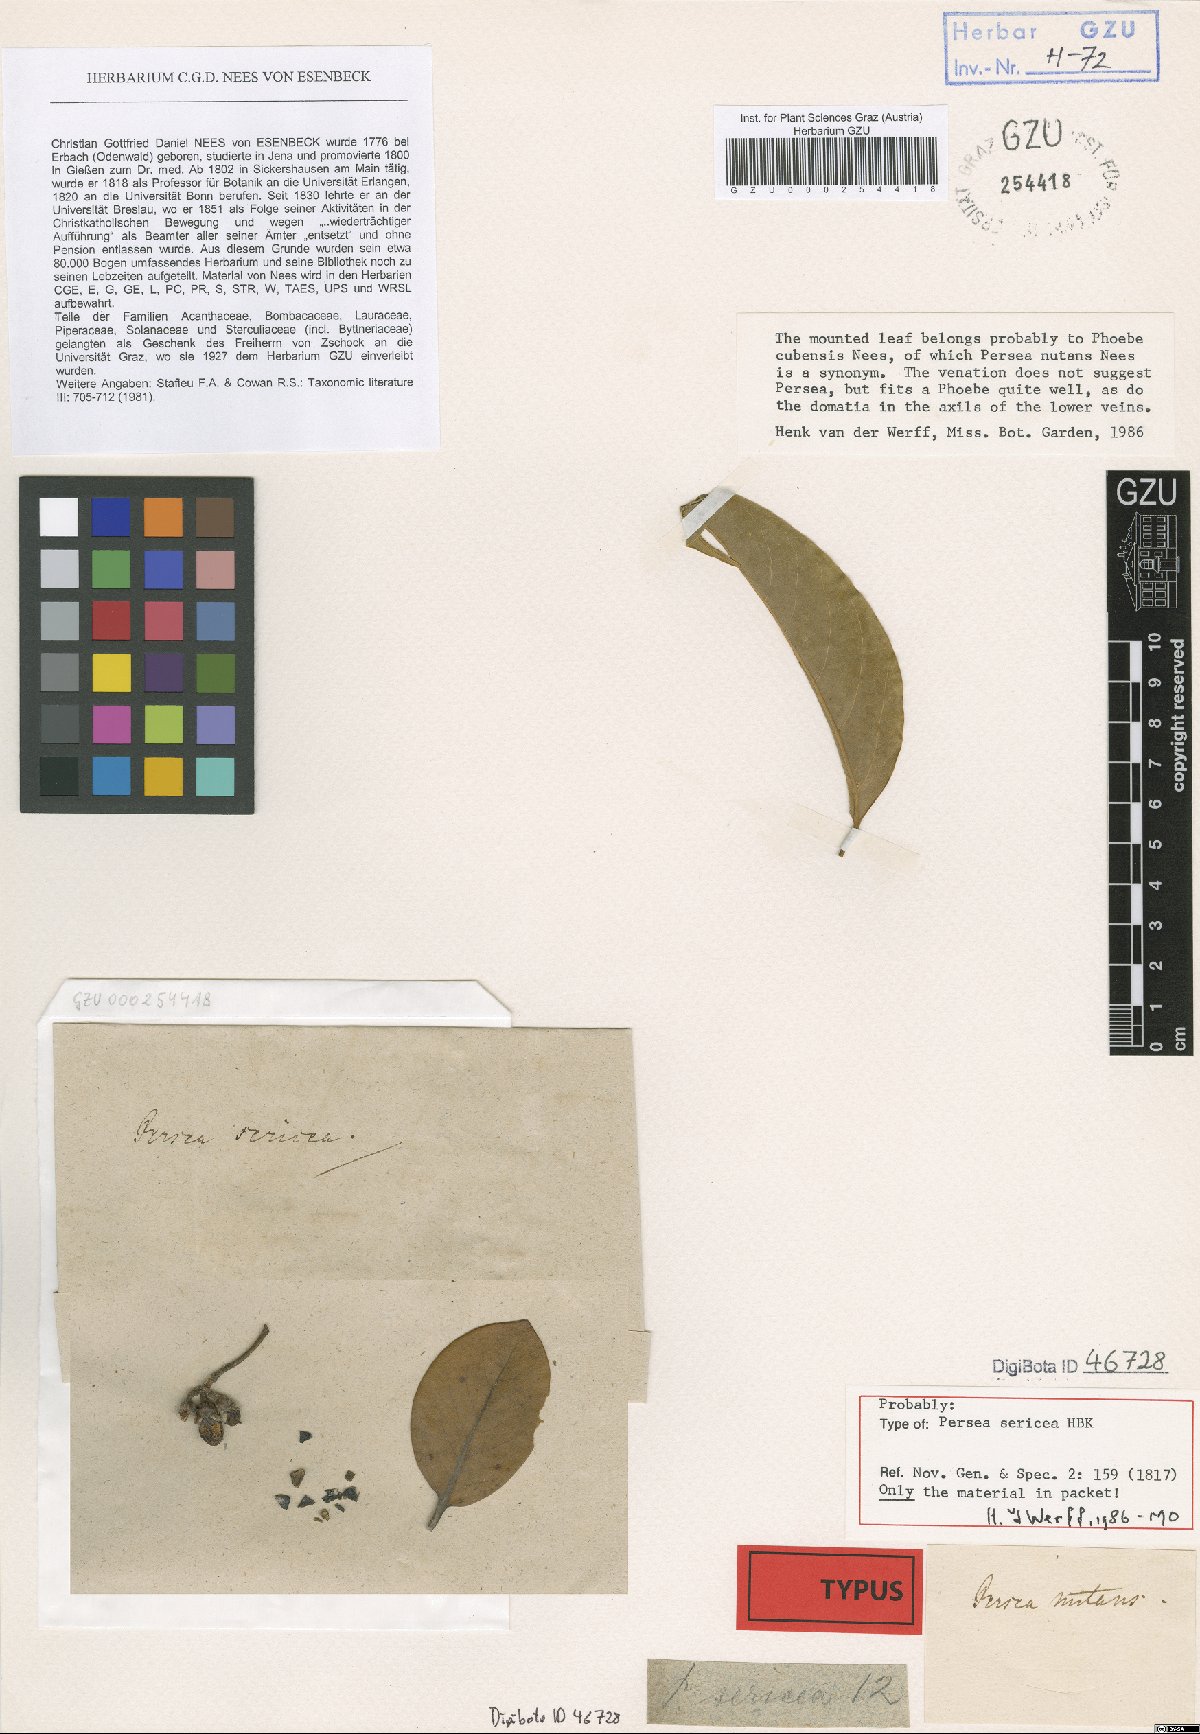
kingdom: Plantae
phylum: Tracheophyta
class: Magnoliopsida
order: Laurales
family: Lauraceae
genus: Persea
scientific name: Persea sericea
